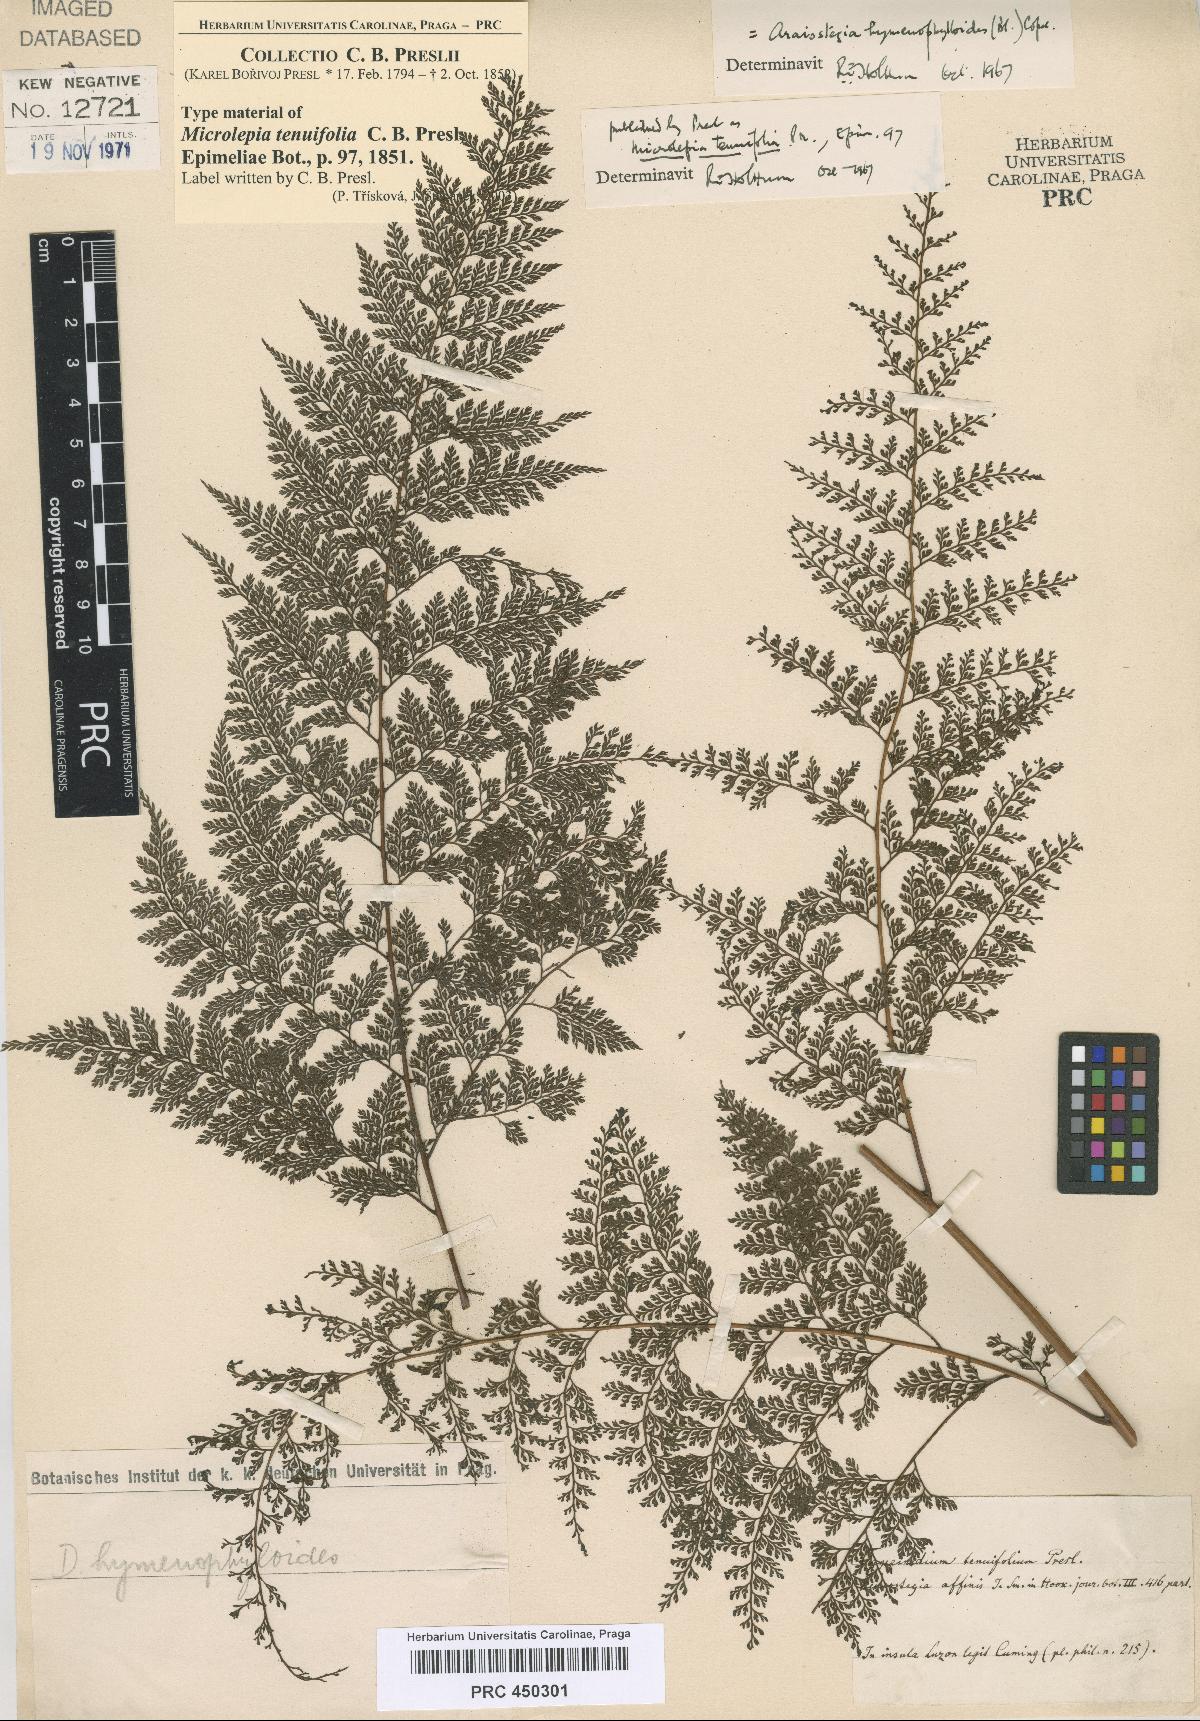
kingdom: Plantae
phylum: Tracheophyta
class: Polypodiopsida
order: Polypodiales
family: Davalliaceae
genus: Davallodes
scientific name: Davallodes hymenophylloides
